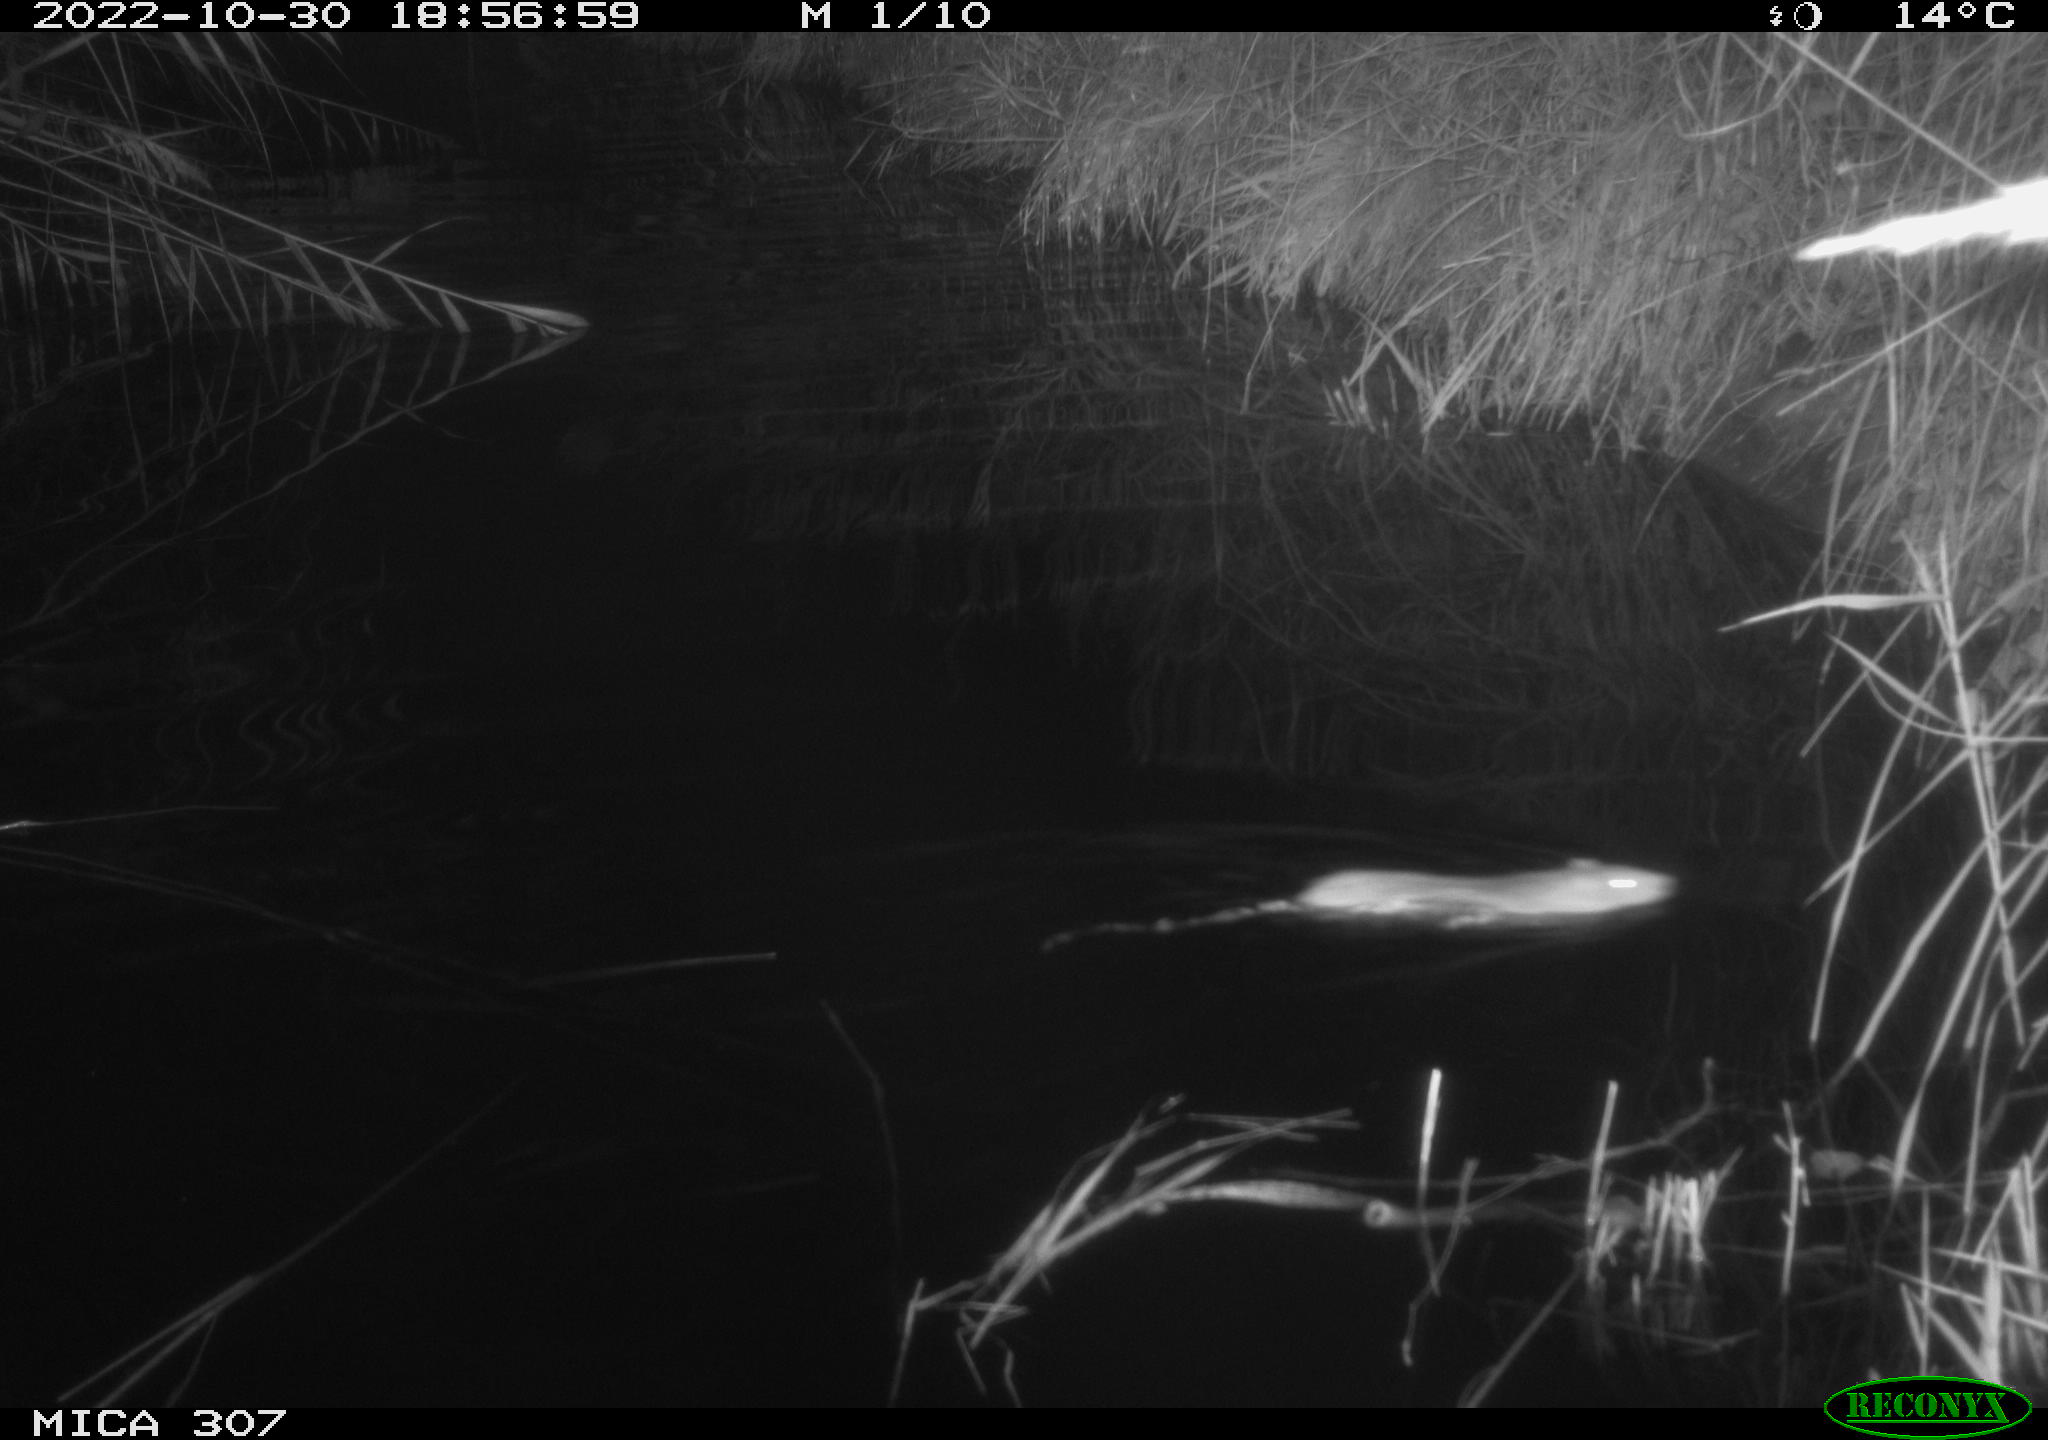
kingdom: Animalia
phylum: Chordata
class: Mammalia
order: Rodentia
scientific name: Rodentia
